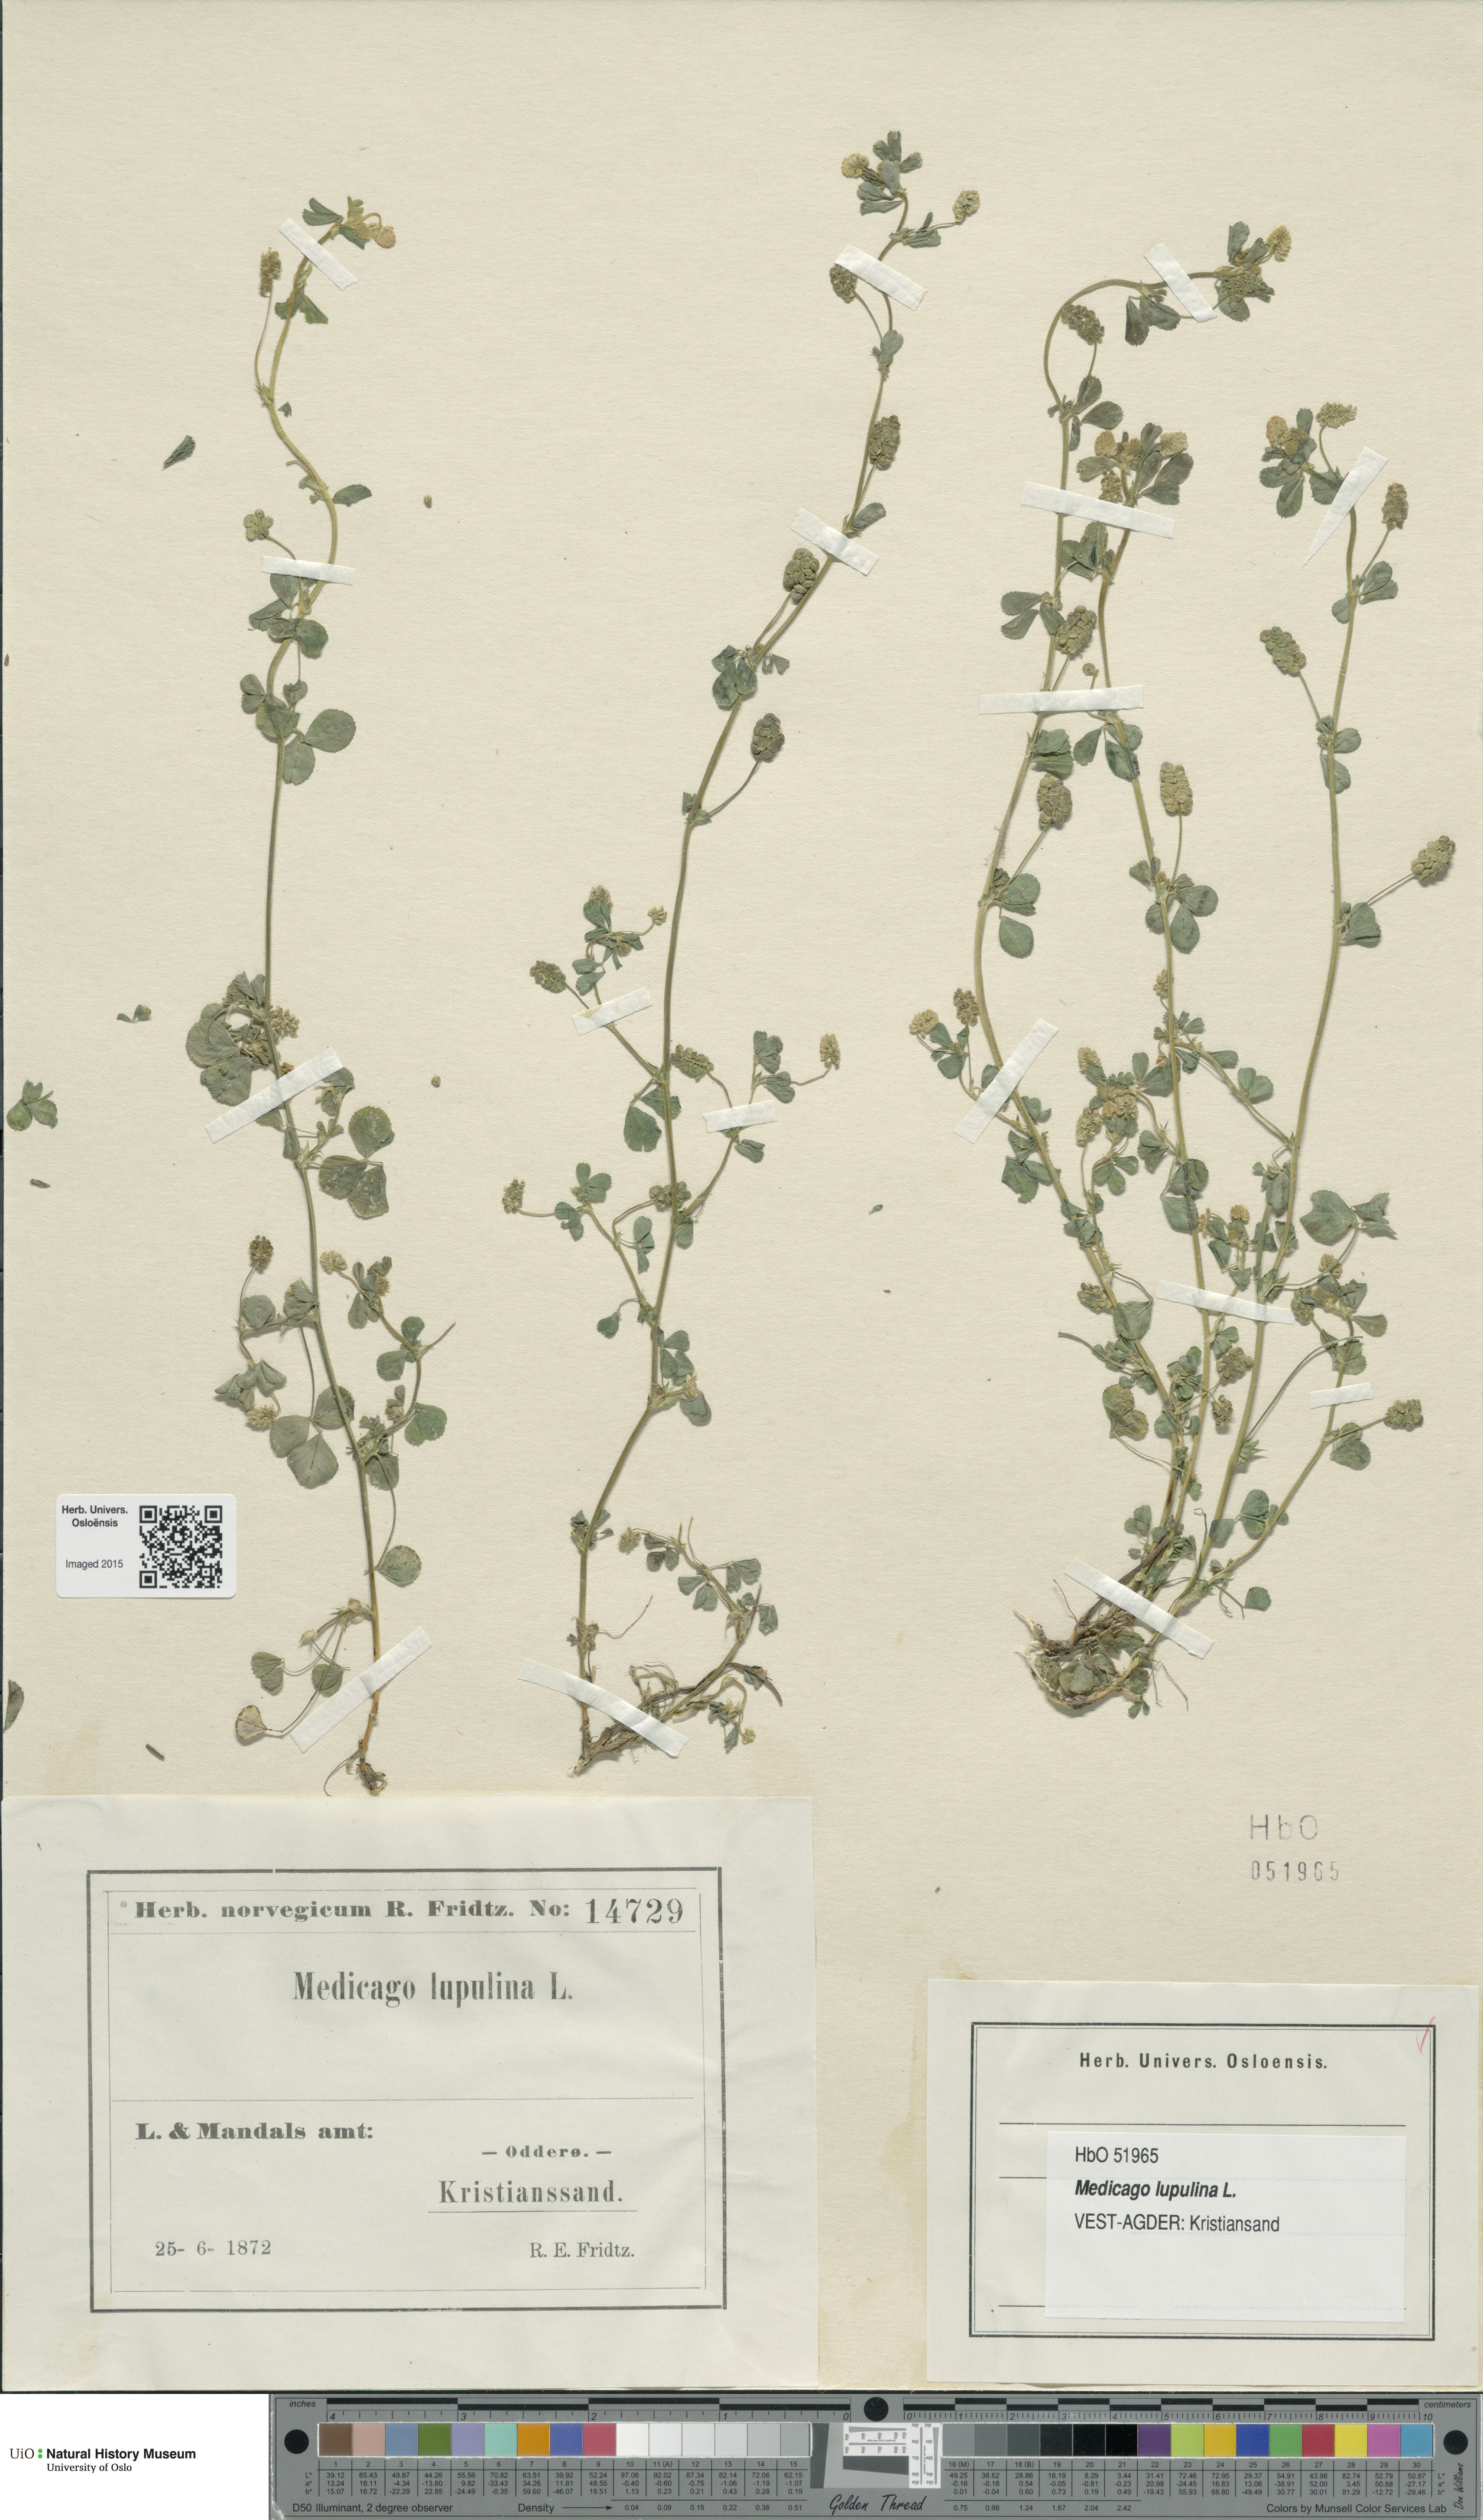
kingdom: Plantae
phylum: Tracheophyta
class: Magnoliopsida
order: Fabales
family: Fabaceae
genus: Medicago
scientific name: Medicago lupulina
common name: Black medick
